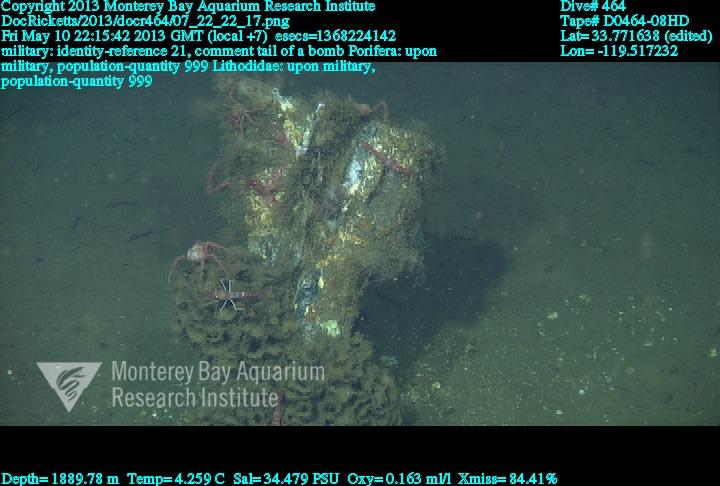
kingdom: Animalia
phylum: Porifera
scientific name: Porifera
